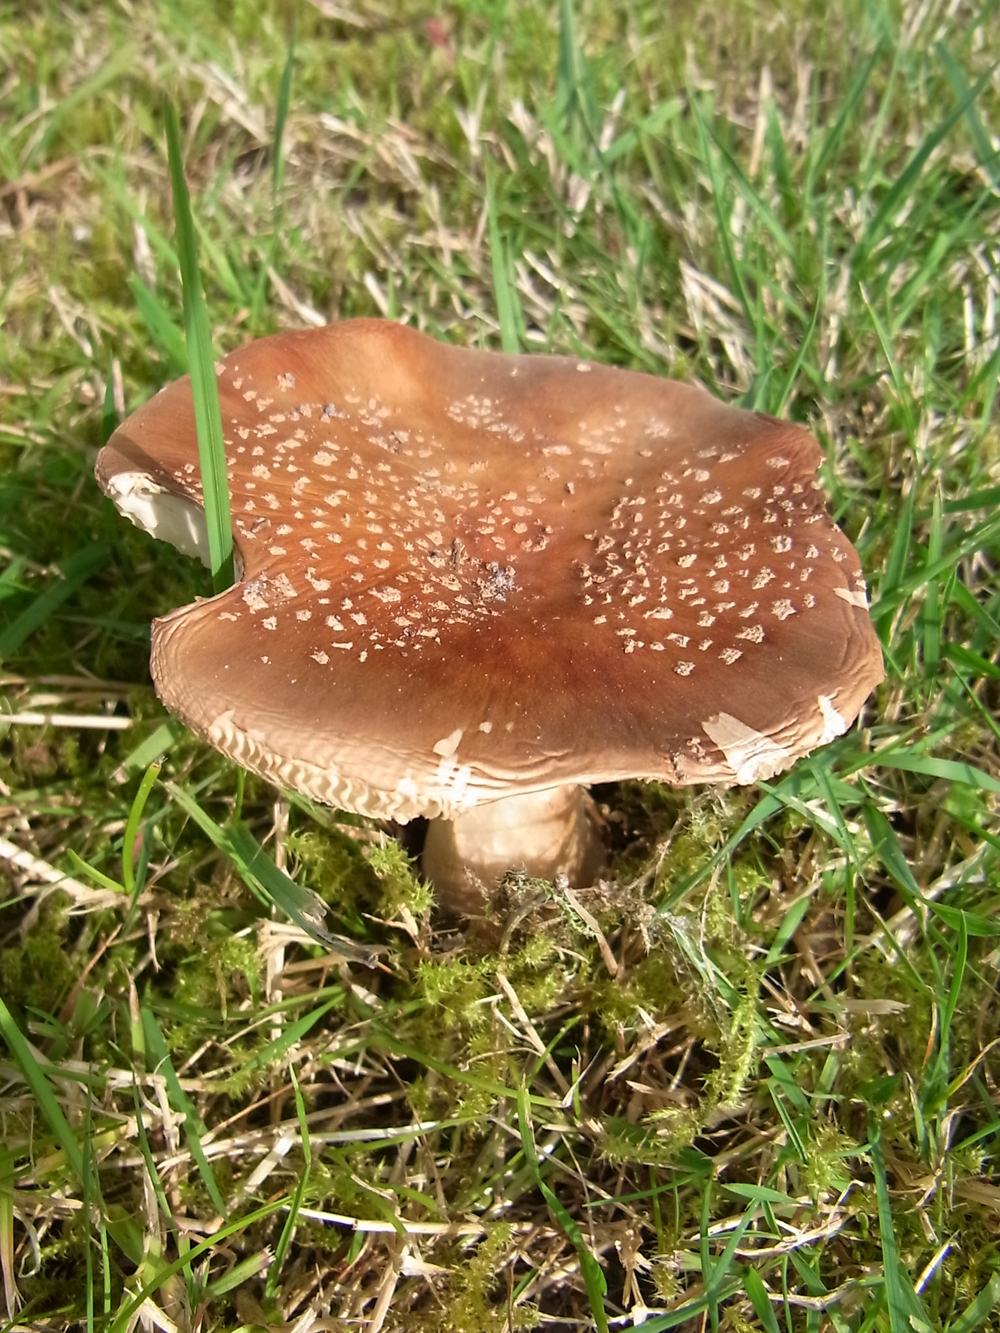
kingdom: Fungi
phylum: Basidiomycota
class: Agaricomycetes
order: Agaricales
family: Amanitaceae
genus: Amanita
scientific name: Amanita rubescens
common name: Blusher
